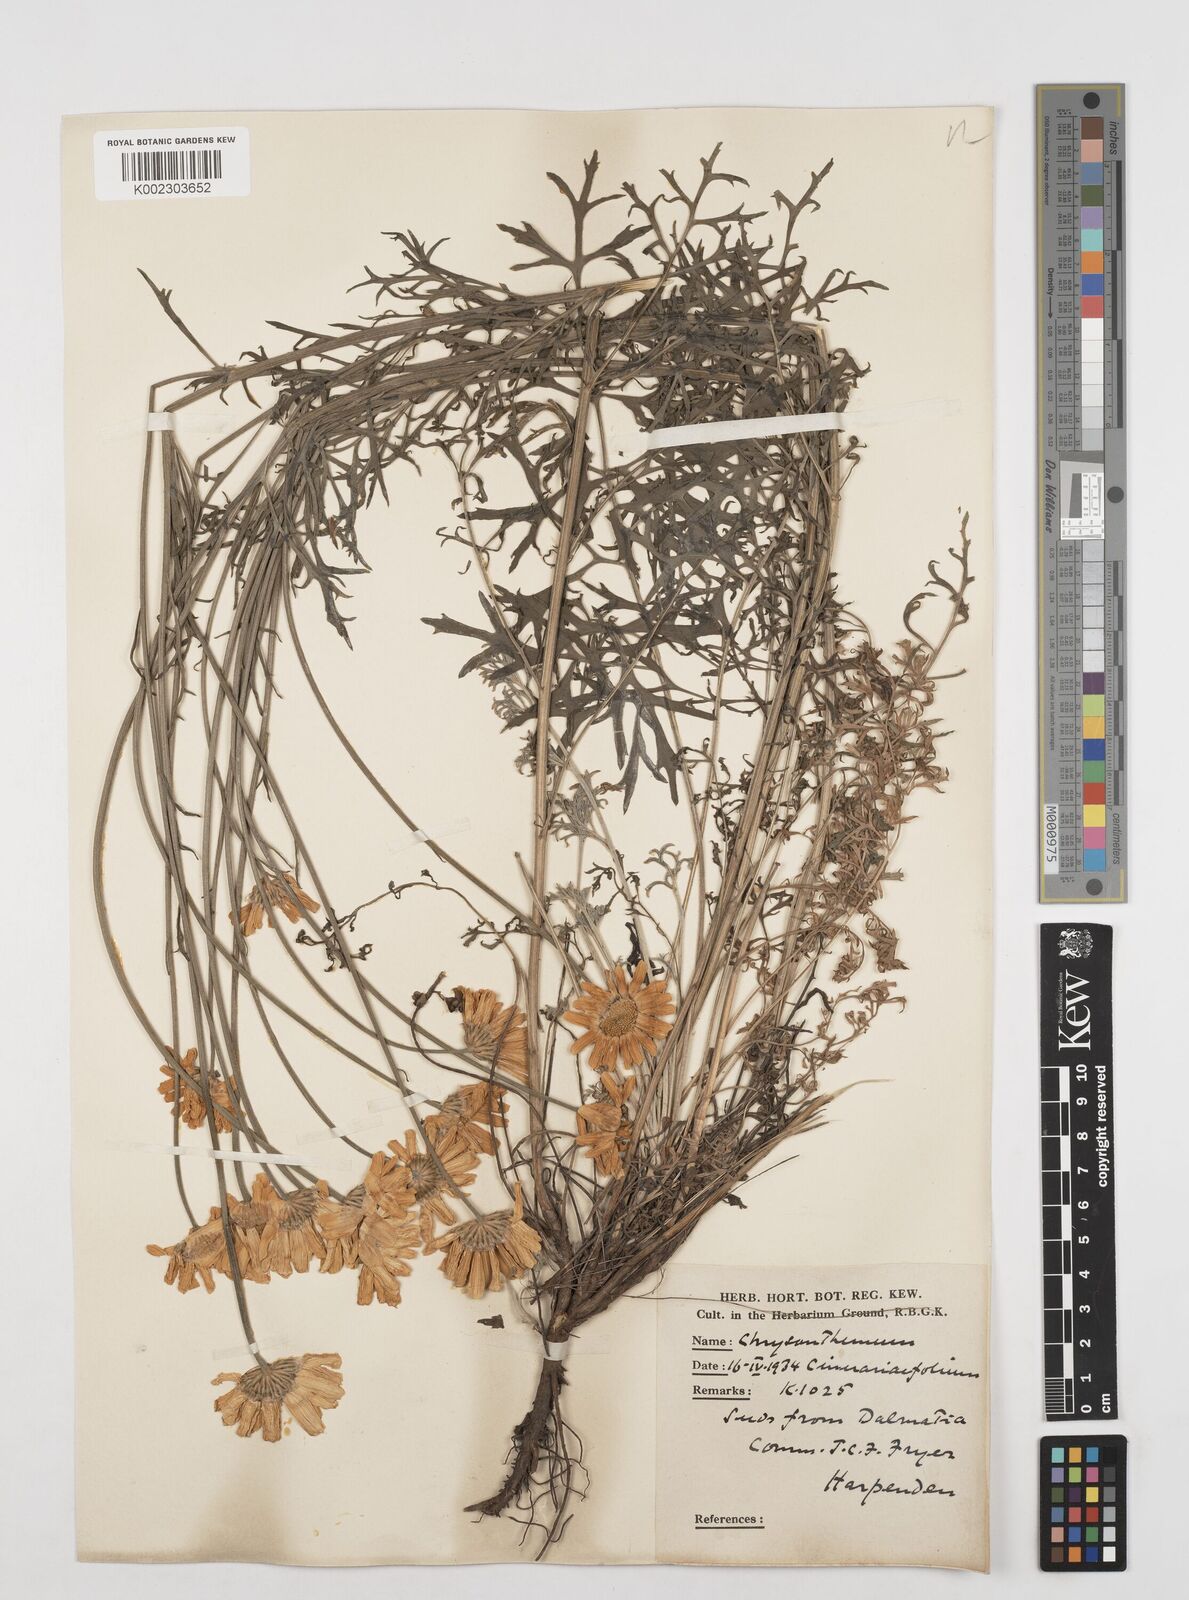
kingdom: Plantae
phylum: Tracheophyta
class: Magnoliopsida
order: Asterales
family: Asteraceae
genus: Tanacetum
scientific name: Tanacetum cinerariifolium
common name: Dalmatian pyrethrum
